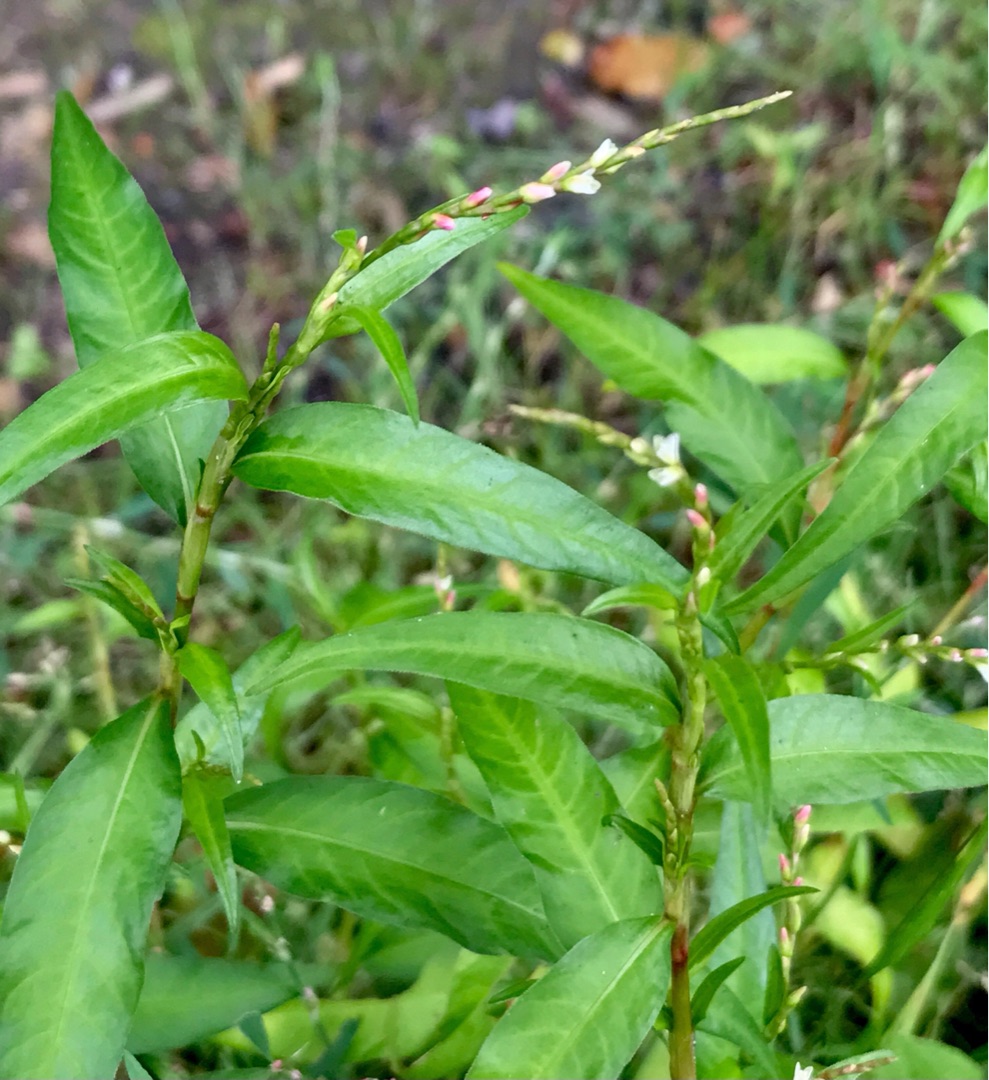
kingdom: Plantae
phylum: Tracheophyta
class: Magnoliopsida
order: Caryophyllales
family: Polygonaceae
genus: Persicaria
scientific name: Persicaria hydropiper
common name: Bidende pileurt
